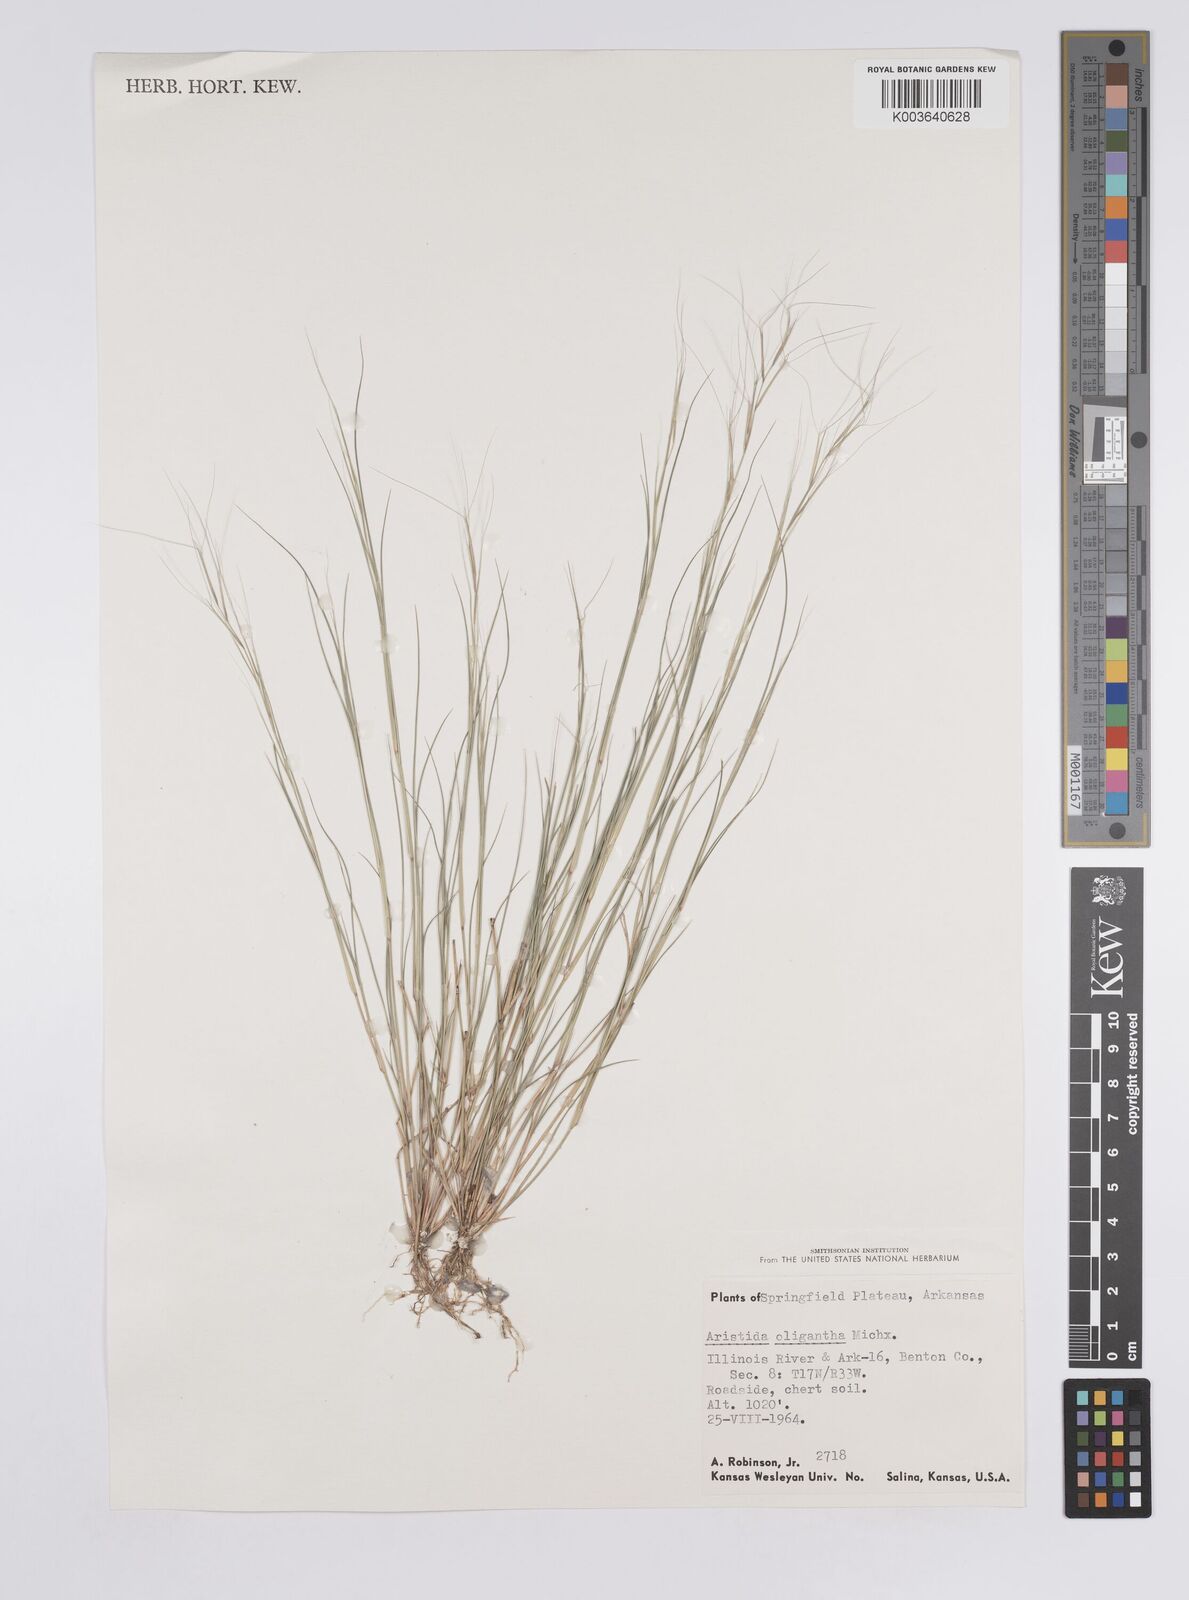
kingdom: Plantae
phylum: Tracheophyta
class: Liliopsida
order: Poales
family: Poaceae
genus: Aristida
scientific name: Aristida oligantha
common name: Few-flowered aristida
